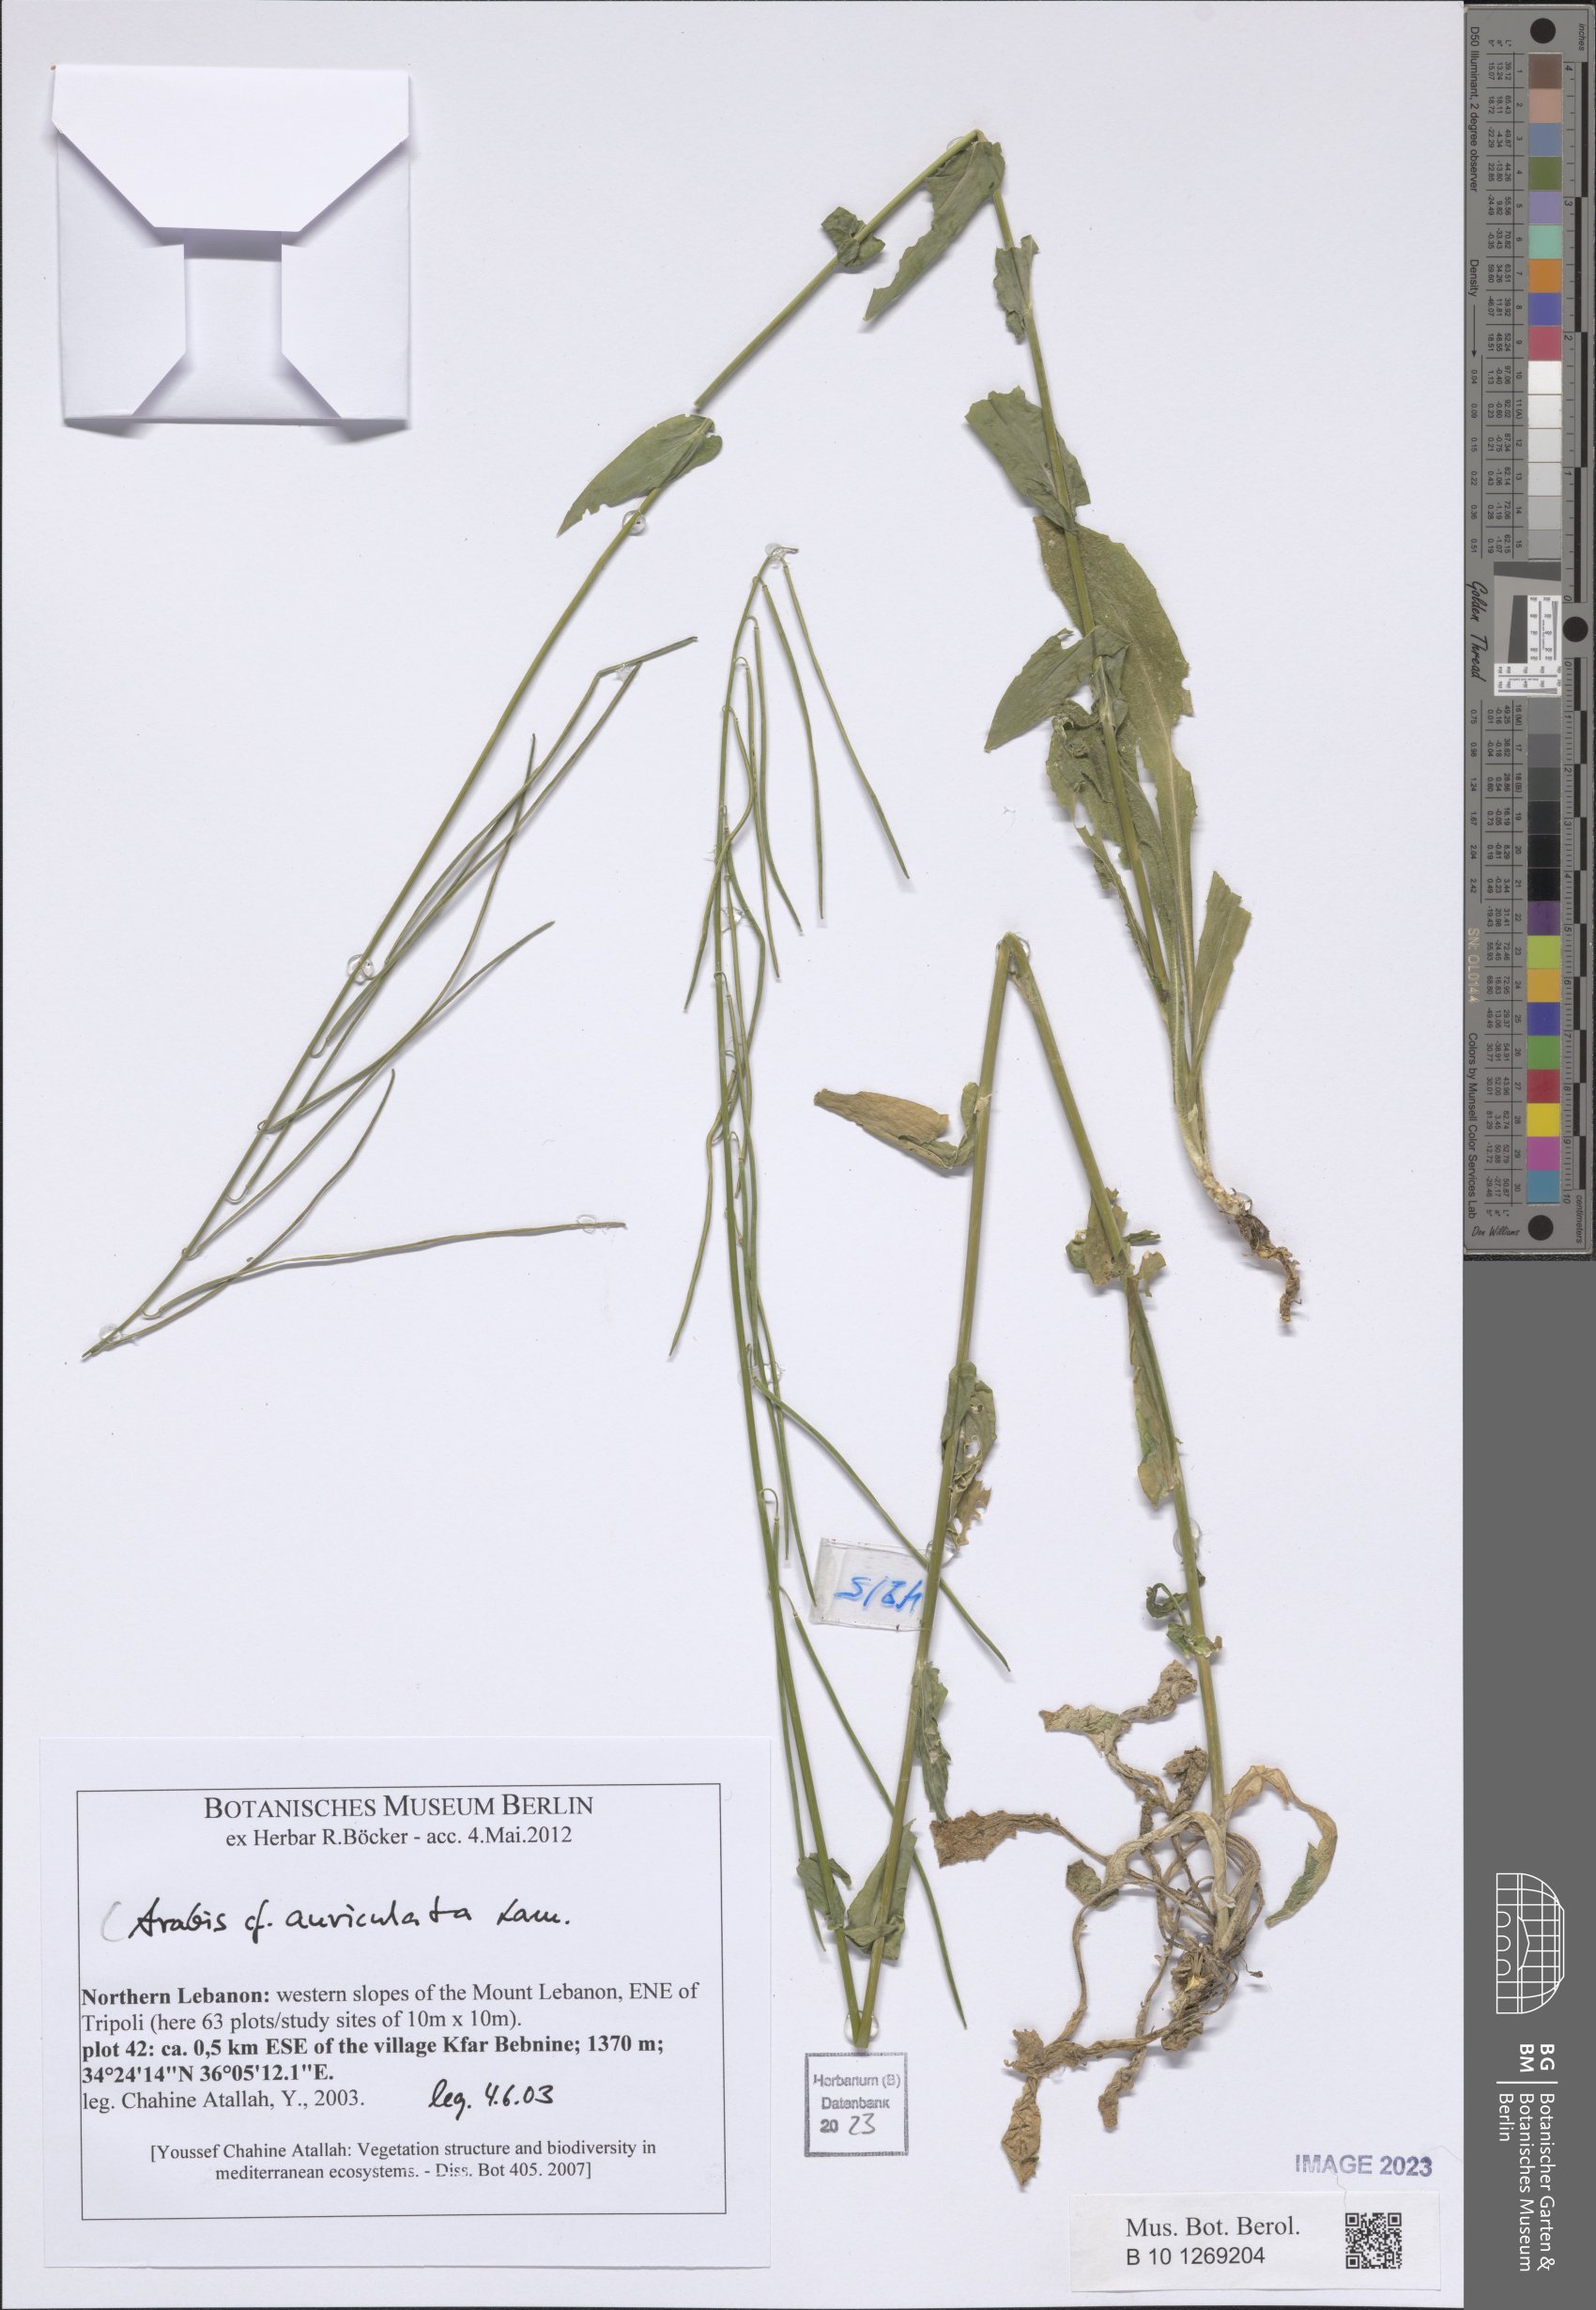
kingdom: Plantae
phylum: Tracheophyta
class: Magnoliopsida
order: Brassicales
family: Brassicaceae
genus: Arabis
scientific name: Arabis auriculata
